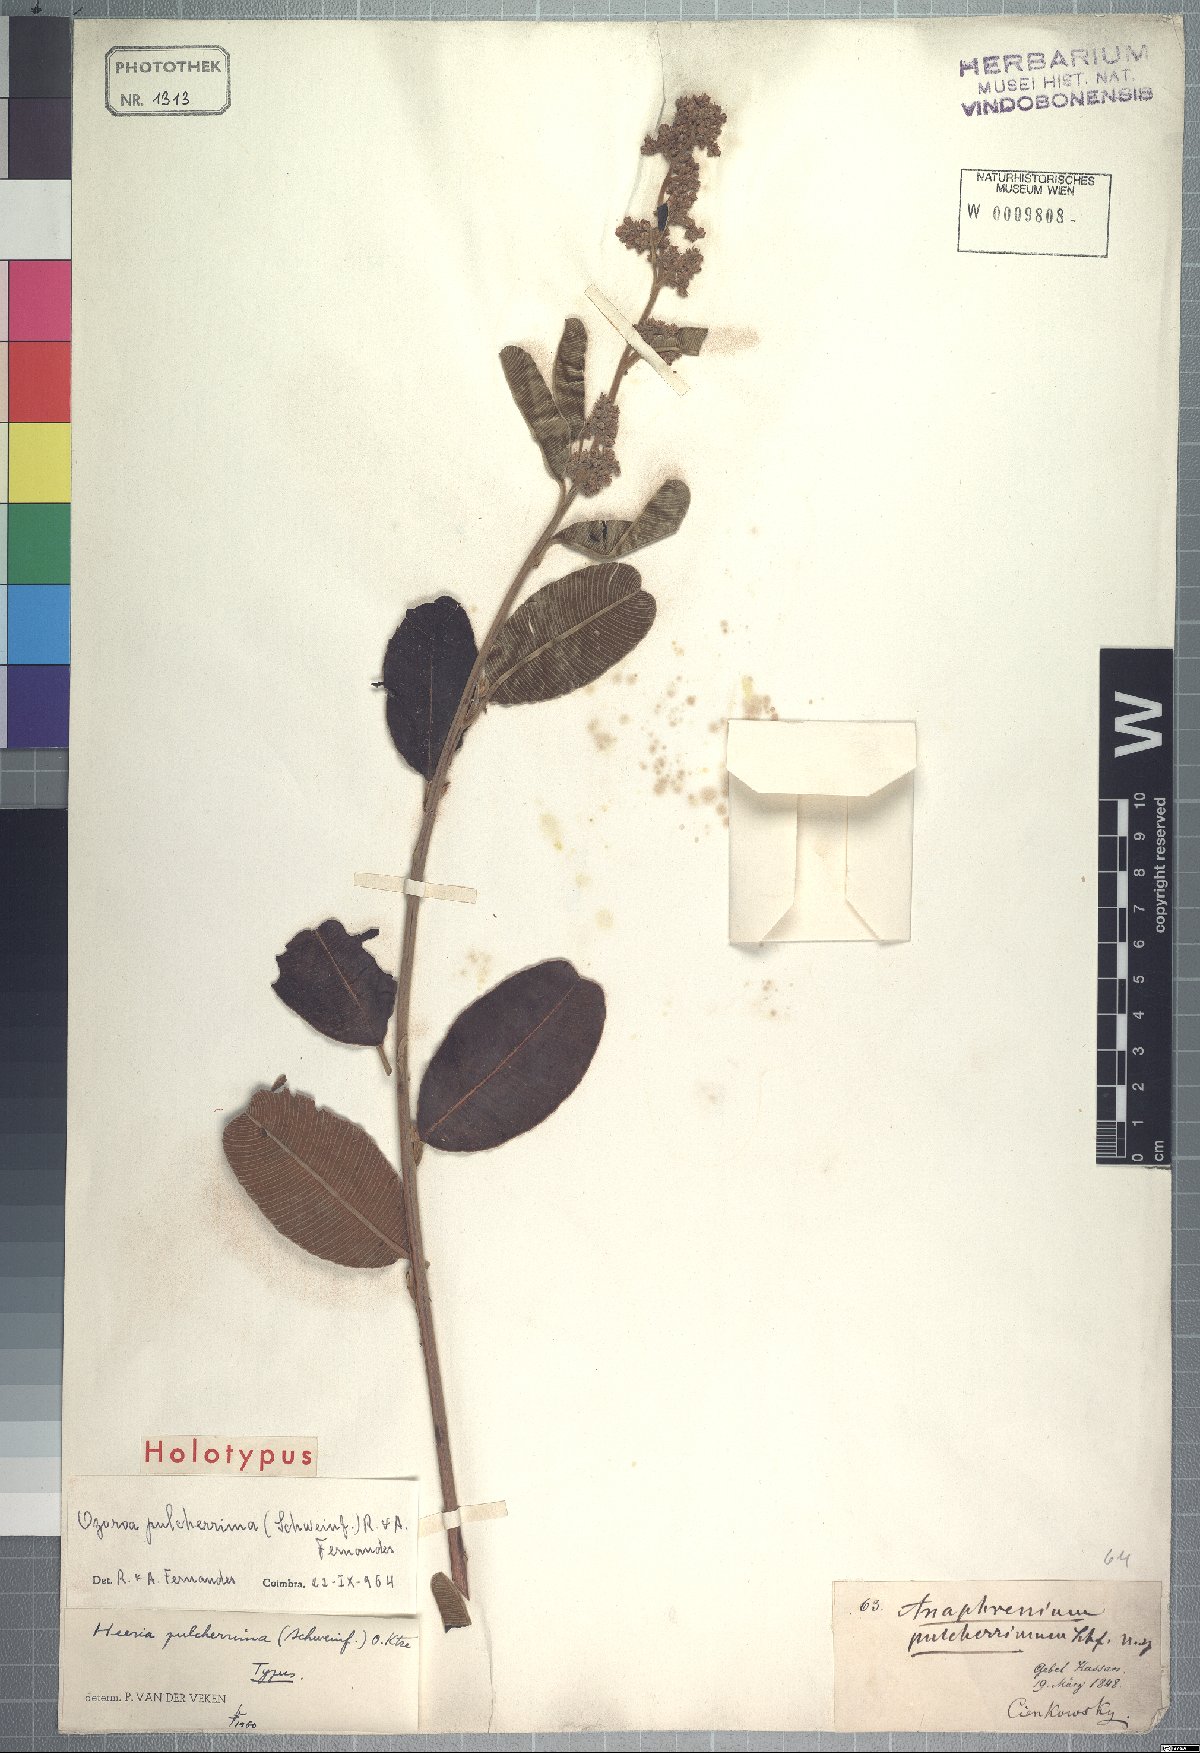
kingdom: Plantae
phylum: Tracheophyta
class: Magnoliopsida
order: Sapindales
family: Anacardiaceae
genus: Ozoroa
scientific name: Ozoroa pulcherrima
